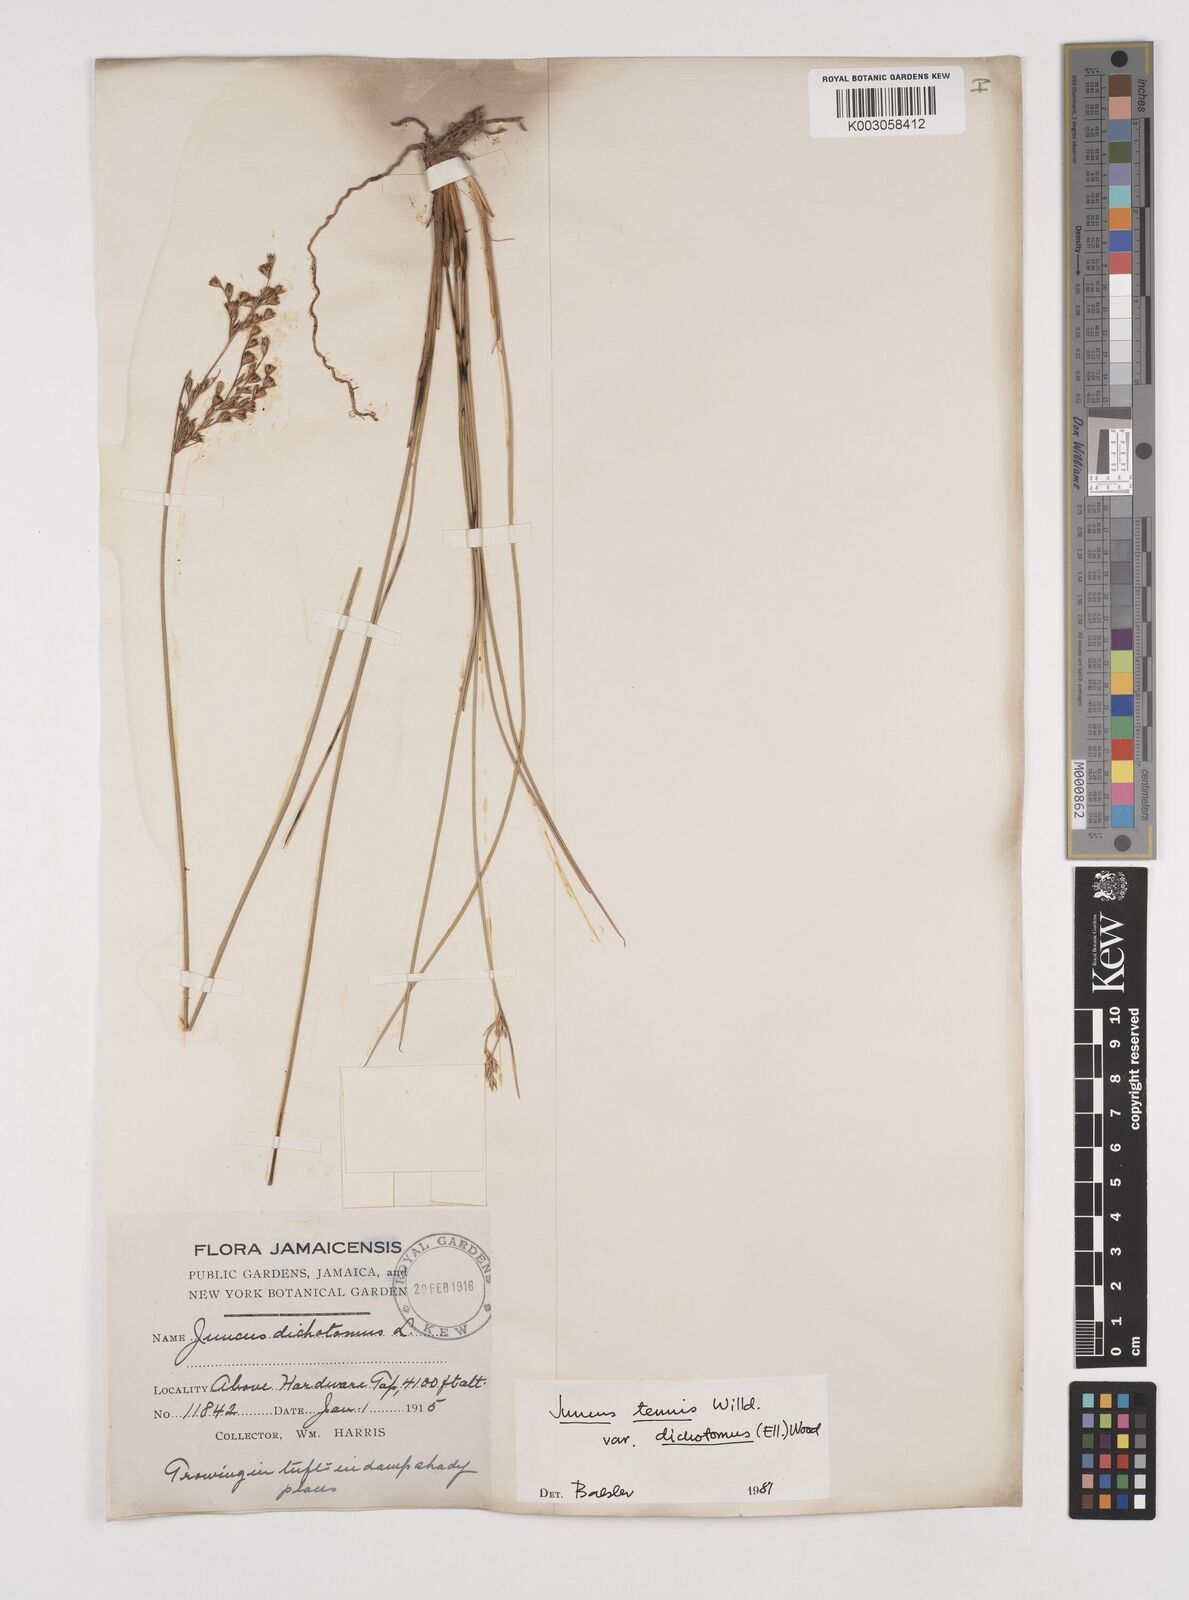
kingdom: Plantae
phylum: Tracheophyta
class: Liliopsida
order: Poales
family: Juncaceae
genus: Juncus
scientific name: Juncus dichotomus
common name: Forked rush
